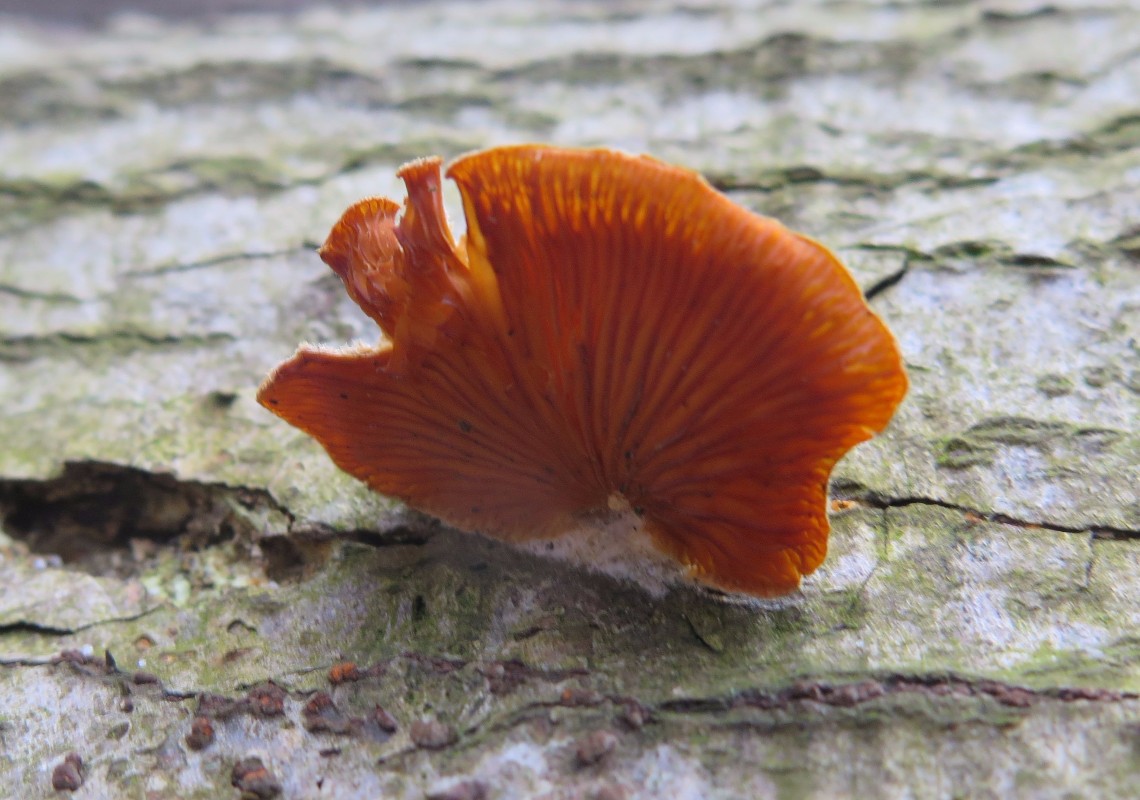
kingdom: Fungi
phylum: Basidiomycota
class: Agaricomycetes
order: Agaricales
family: Phyllotopsidaceae
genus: Phyllotopsis
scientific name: Phyllotopsis nidulans
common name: okkerblad
